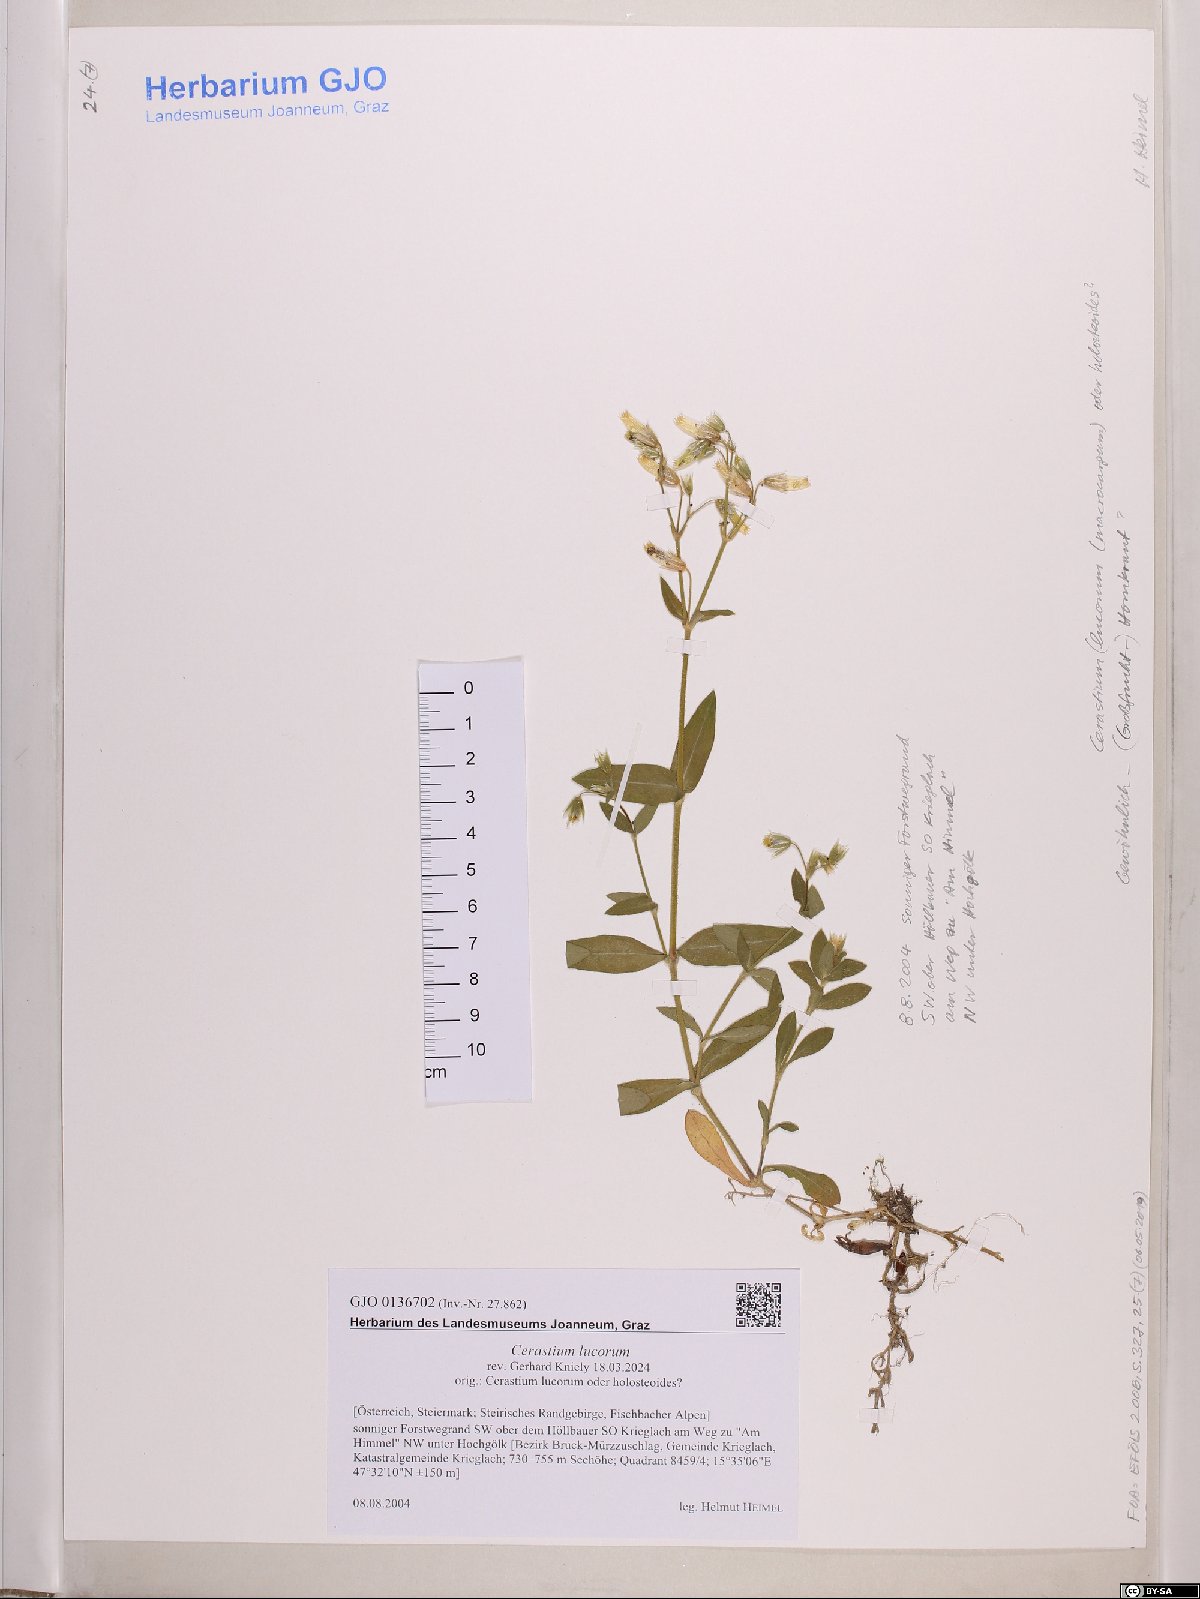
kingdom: Plantae
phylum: Tracheophyta
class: Magnoliopsida
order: Caryophyllales
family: Caryophyllaceae
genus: Cerastium
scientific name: Cerastium lucorum
